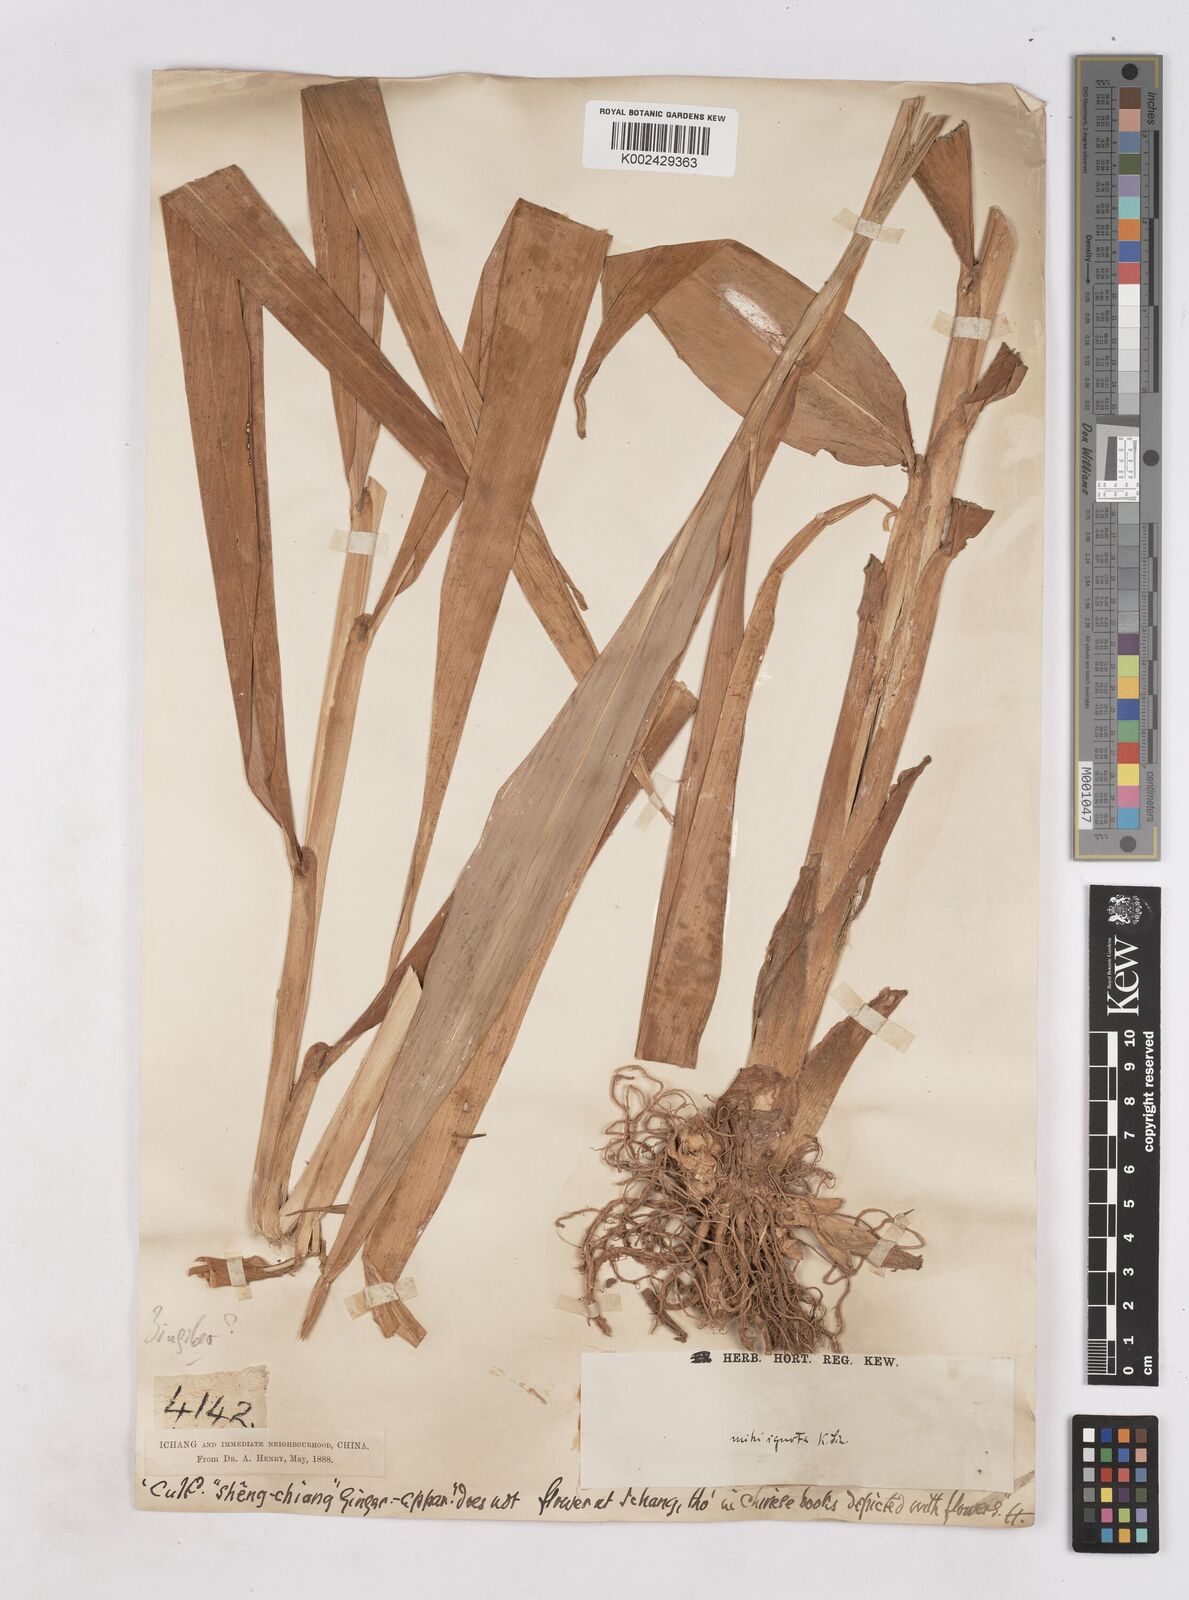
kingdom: Plantae
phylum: Tracheophyta
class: Liliopsida
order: Zingiberales
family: Zingiberaceae
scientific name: Zingiberaceae
